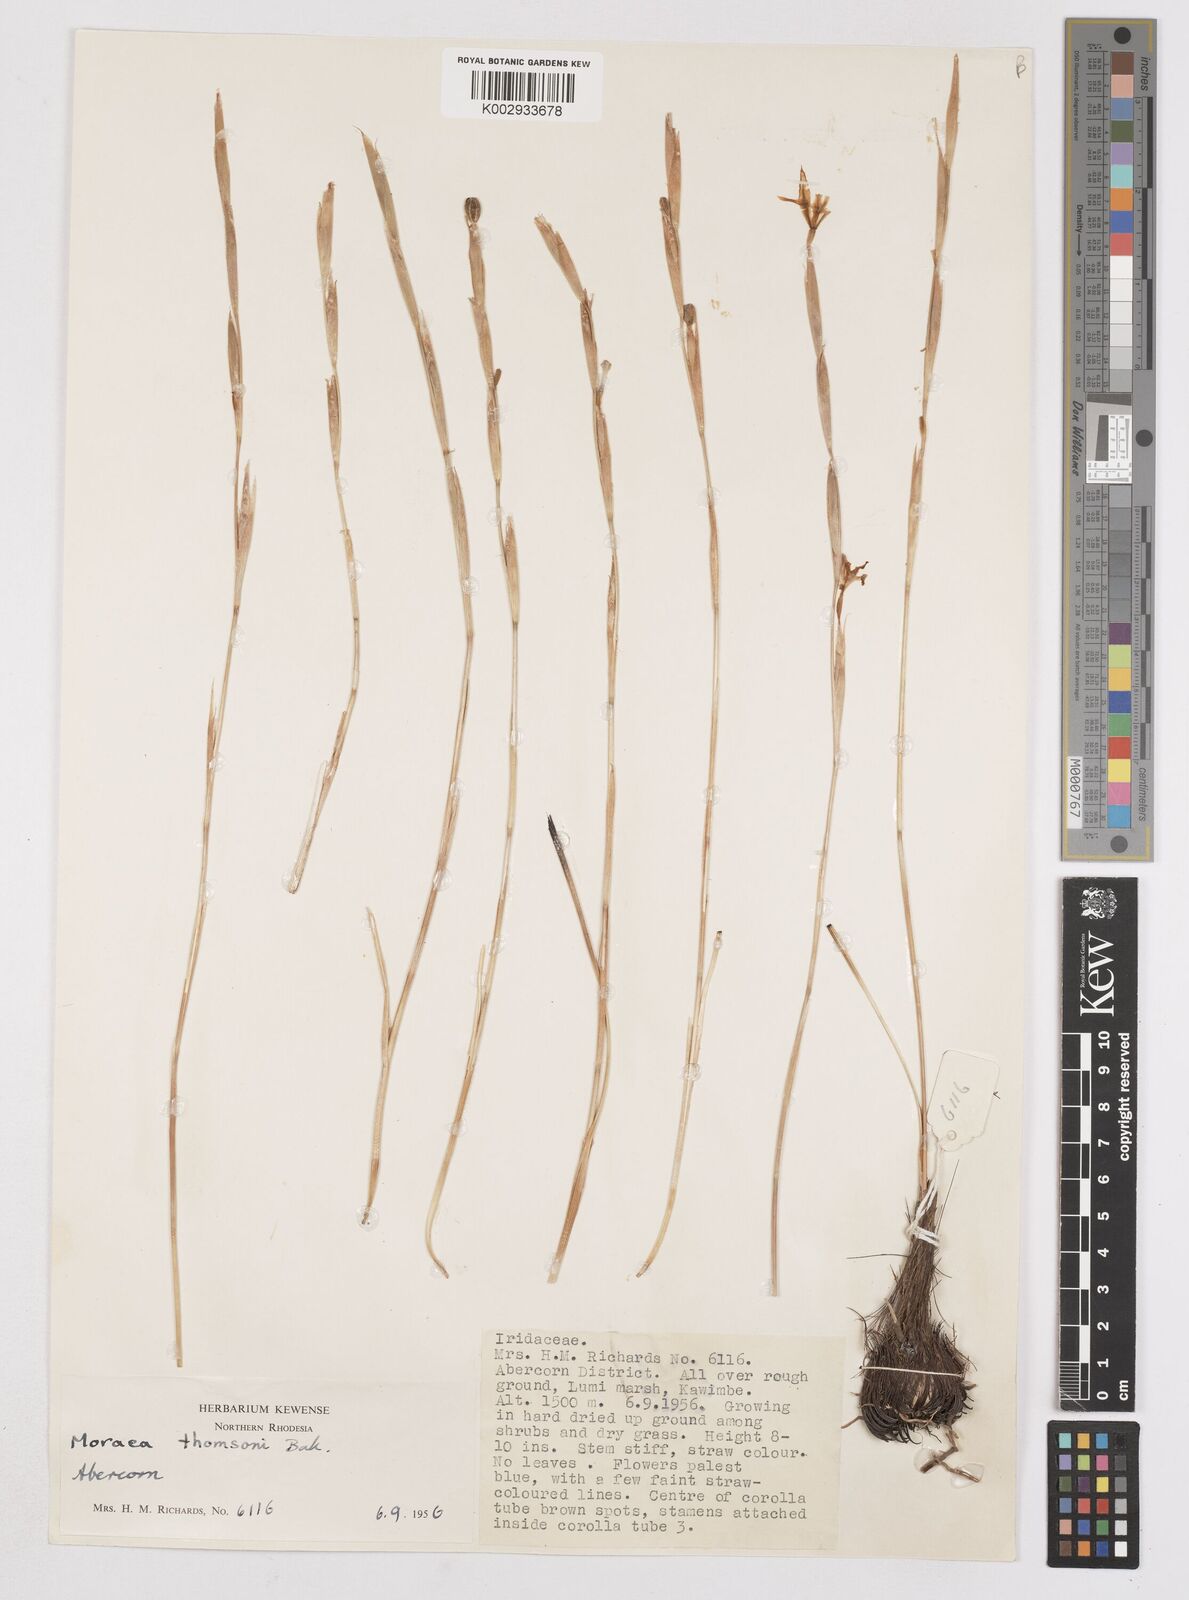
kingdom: Plantae
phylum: Tracheophyta
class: Liliopsida
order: Asparagales
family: Iridaceae
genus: Moraea
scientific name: Moraea thomsonii
